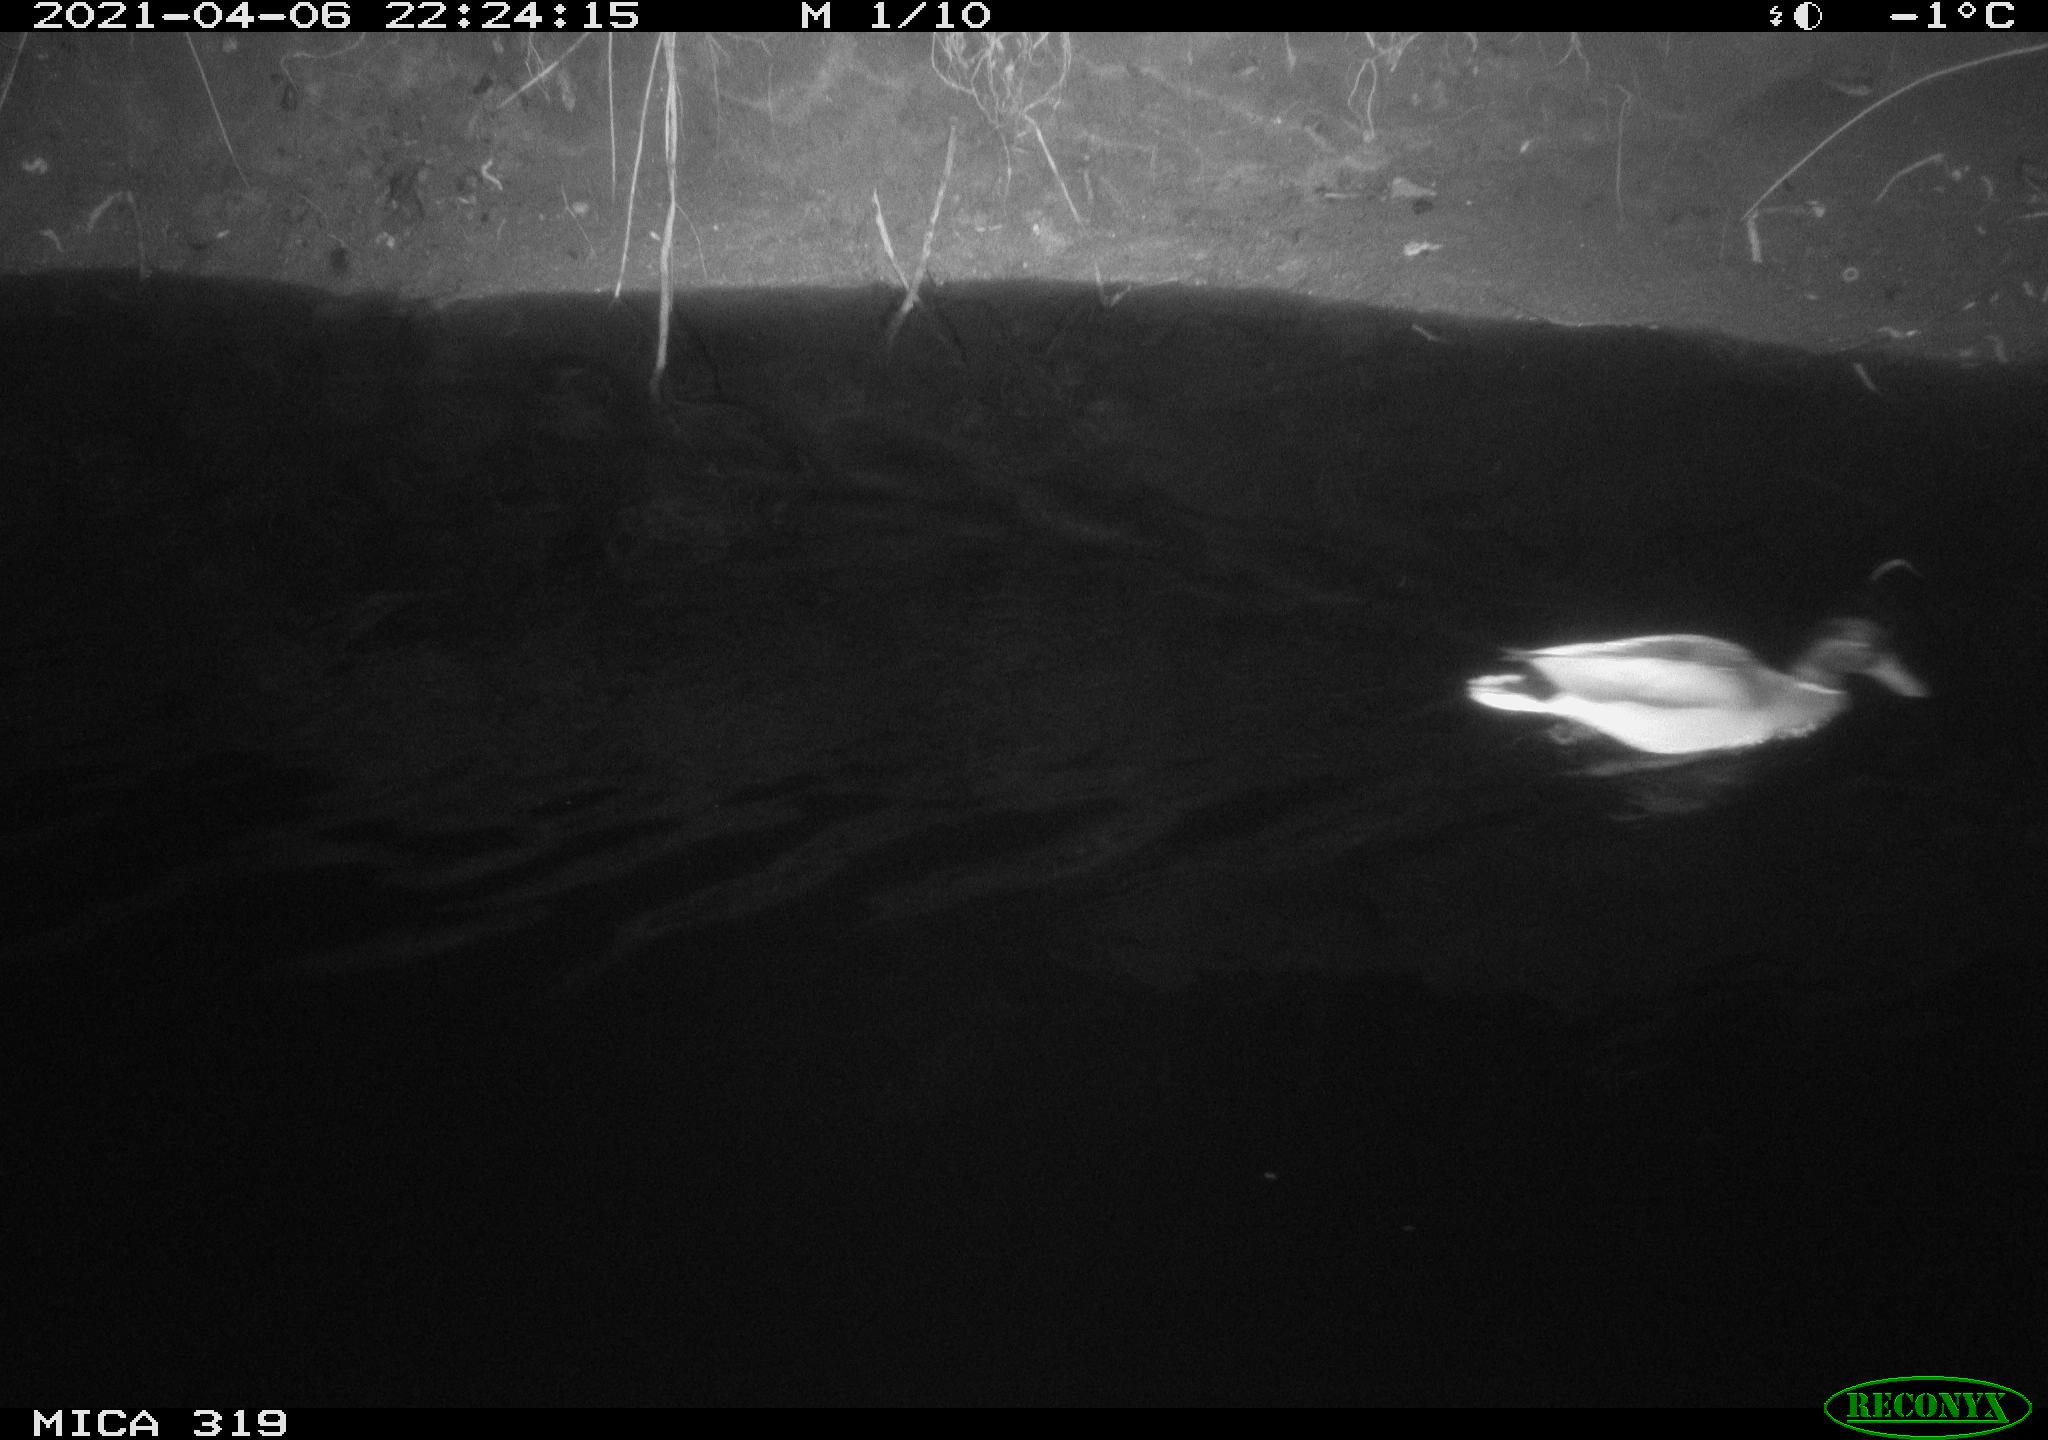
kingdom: Animalia
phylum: Chordata
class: Aves
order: Anseriformes
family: Anatidae
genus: Anas
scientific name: Anas platyrhynchos
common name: Mallard
